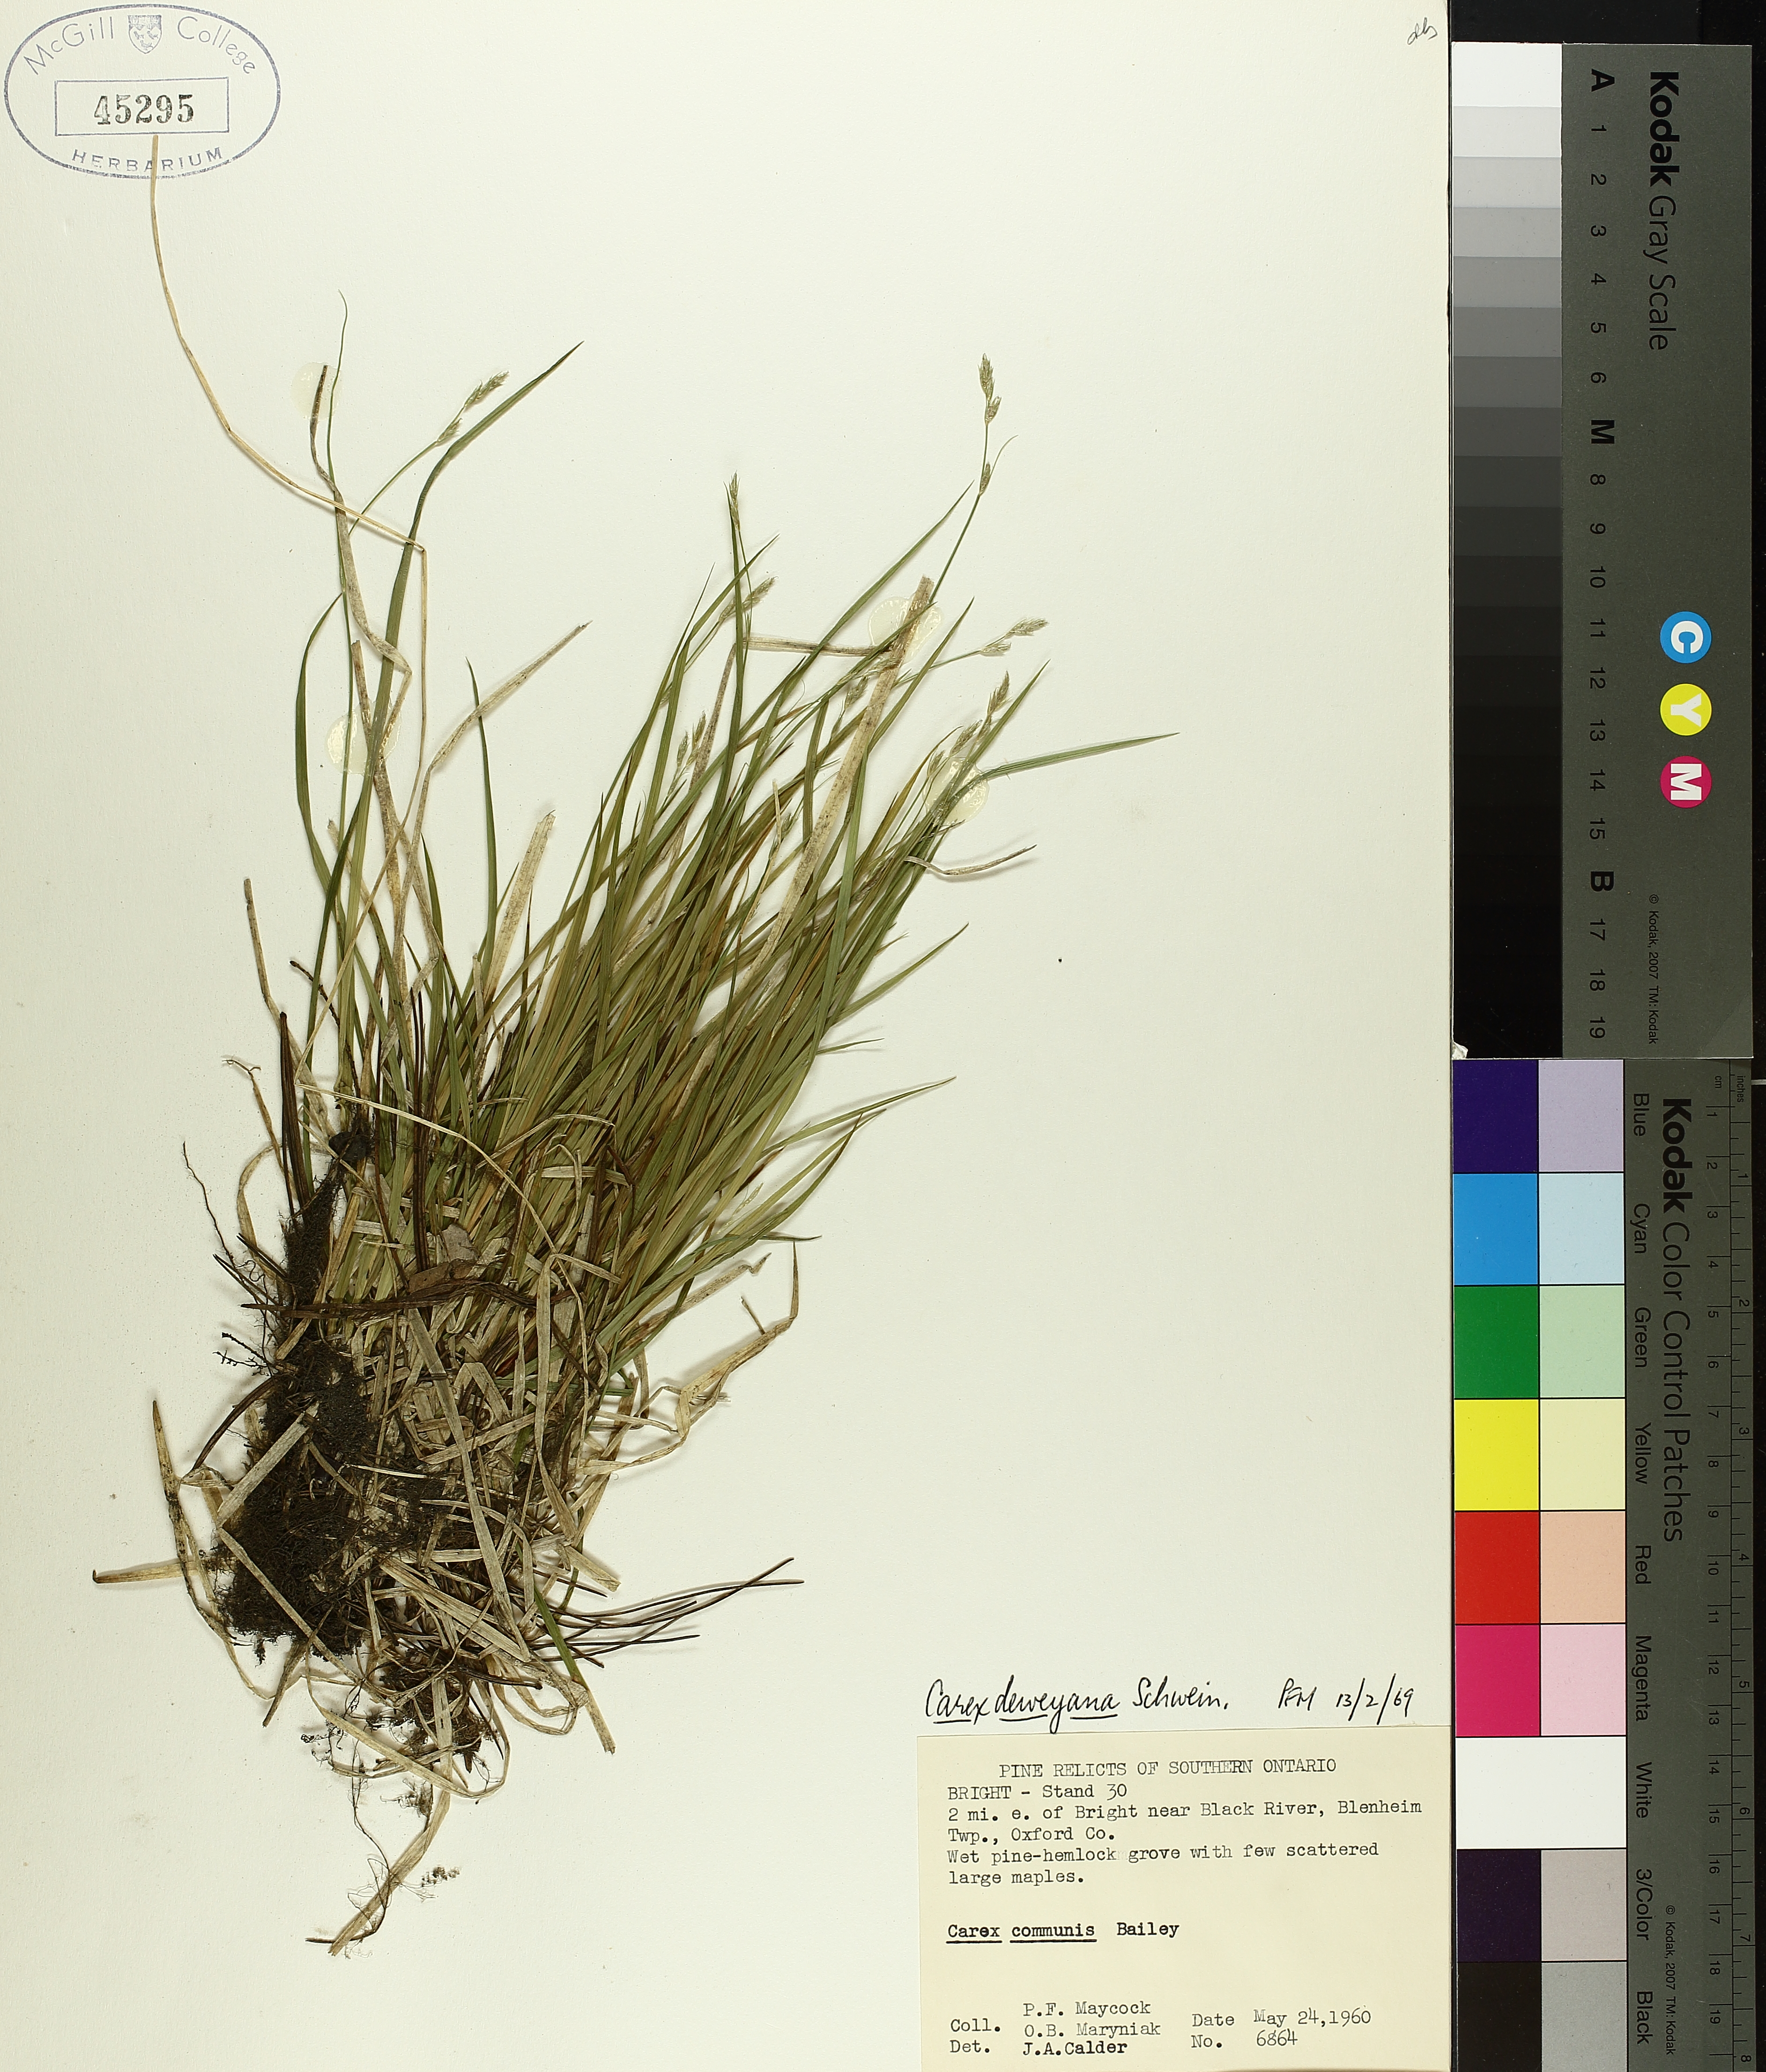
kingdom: Plantae
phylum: Tracheophyta
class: Liliopsida
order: Poales
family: Cyperaceae
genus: Carex
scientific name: Carex deweyana
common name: Dewey's sedge
